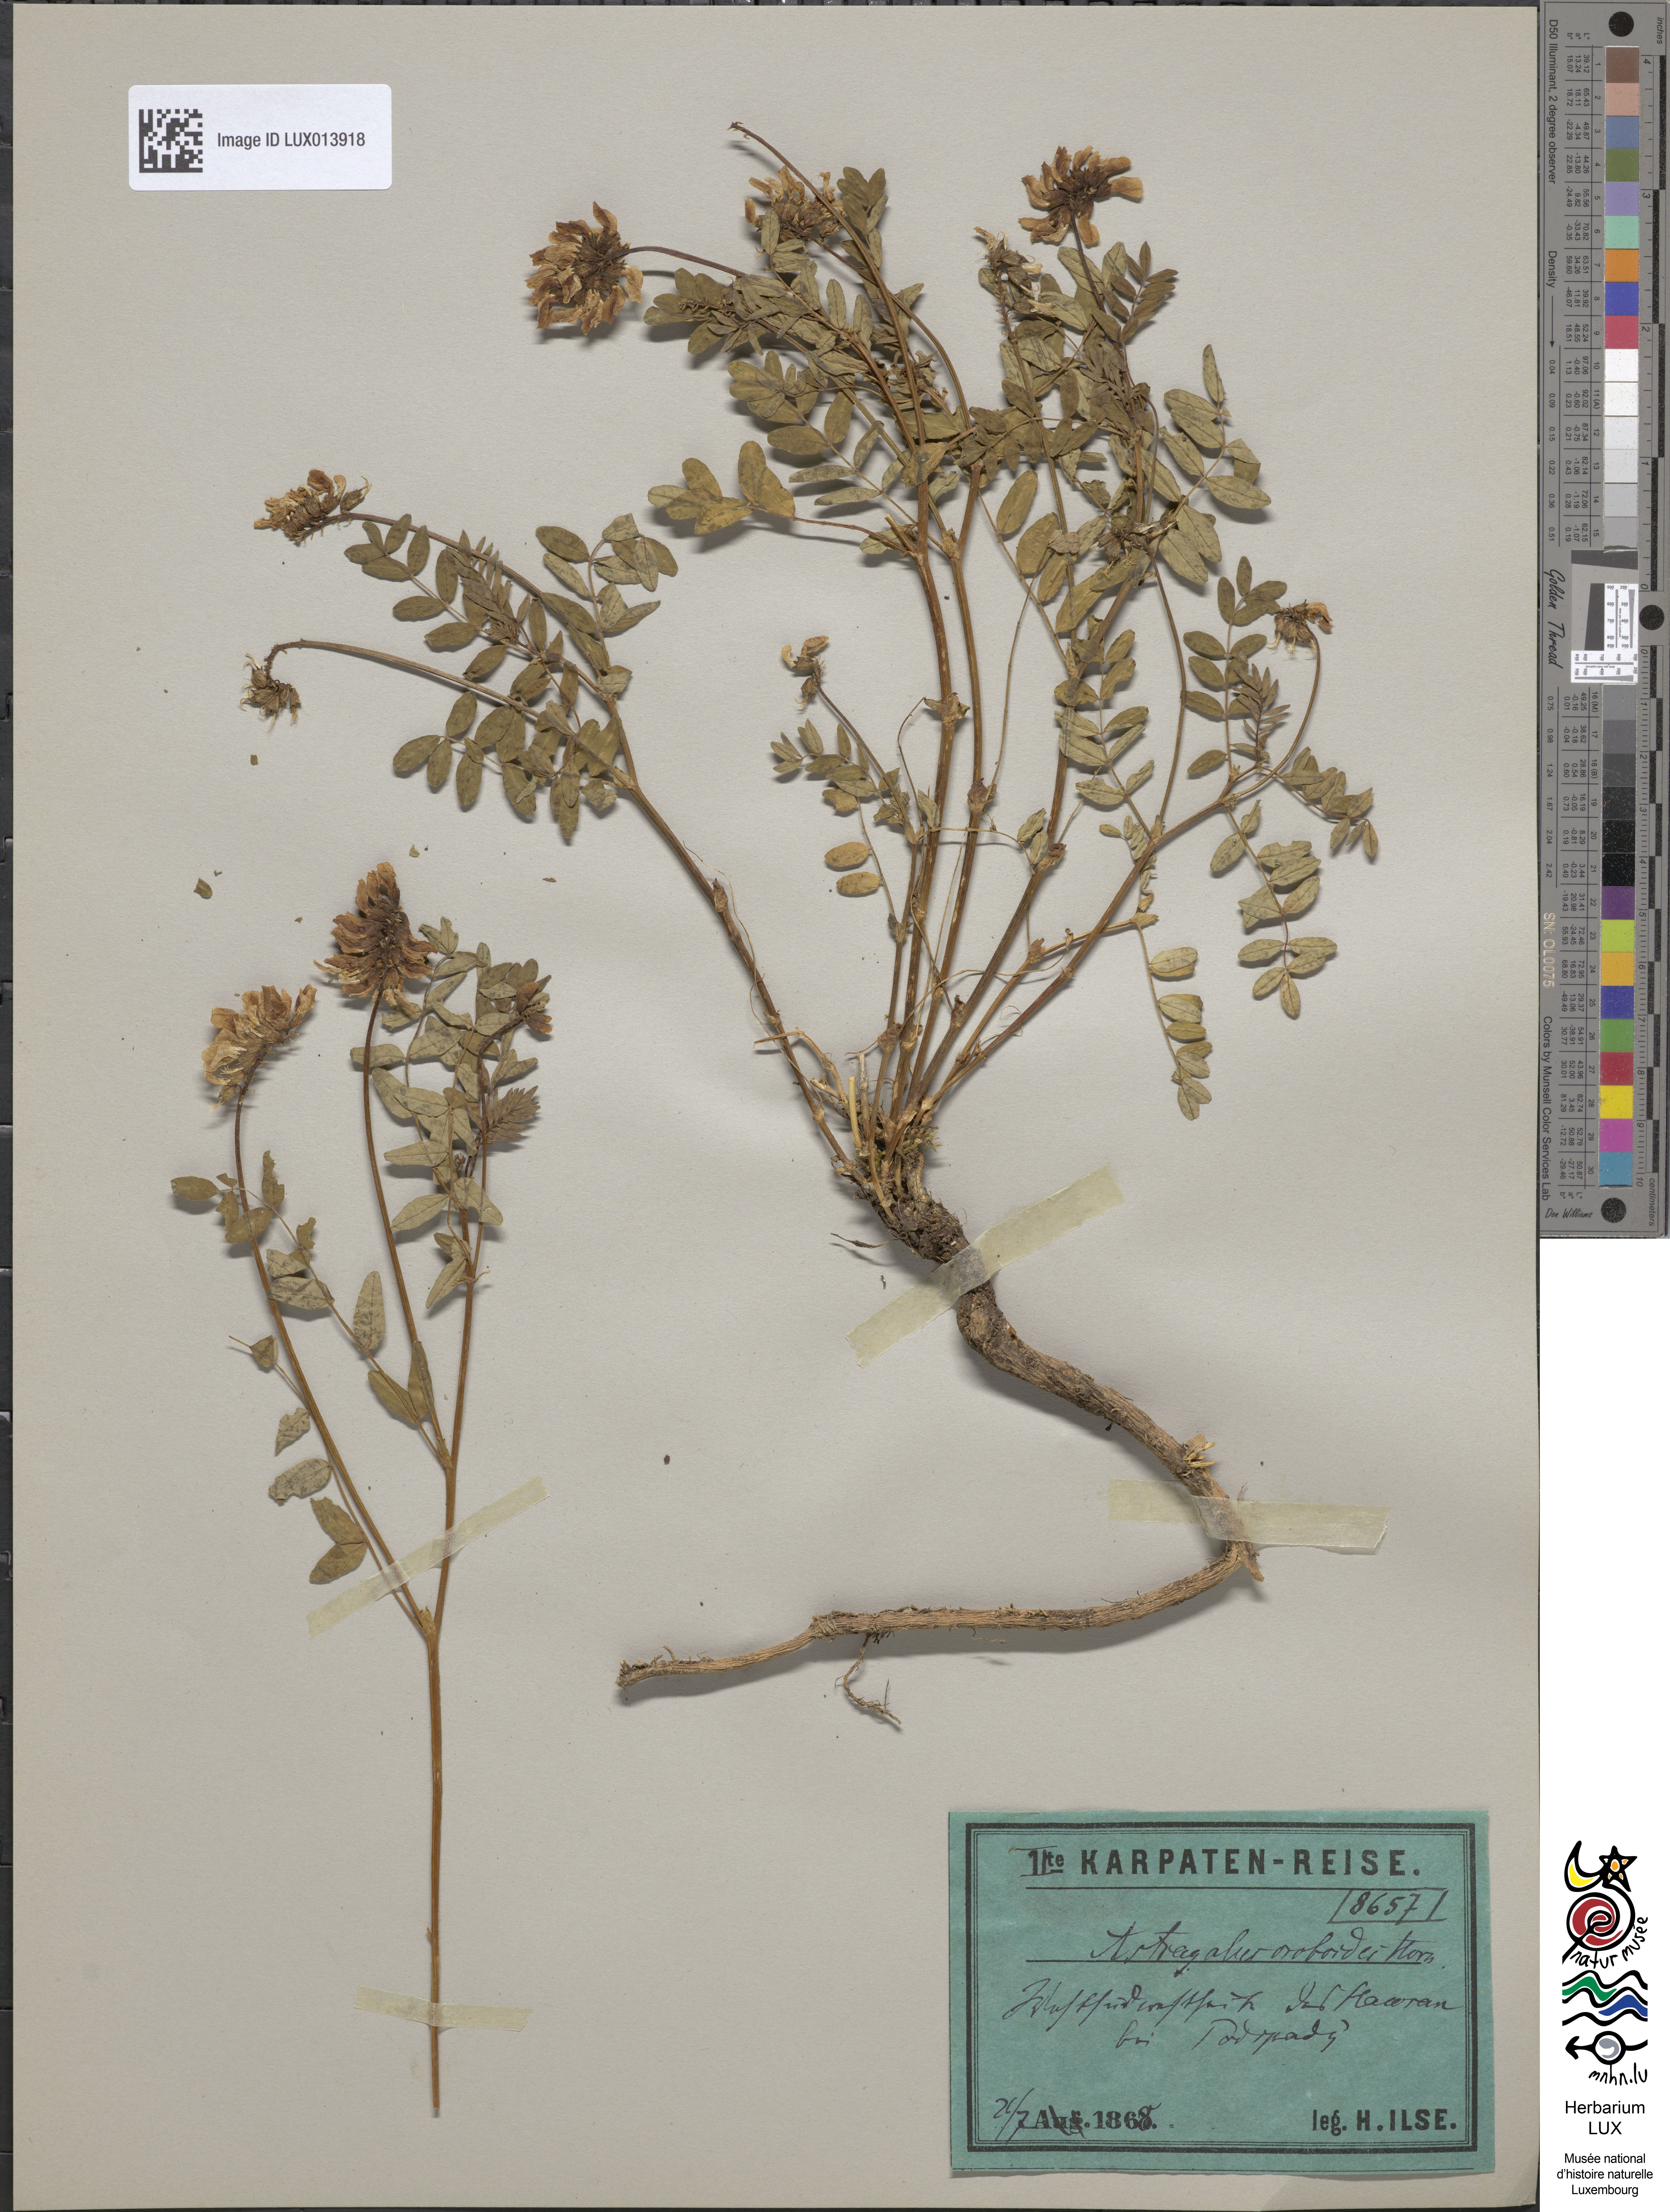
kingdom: Plantae
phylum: Tracheophyta
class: Magnoliopsida
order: Fabales
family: Fabaceae
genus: Astragalus
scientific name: Astragalus norvegicus
